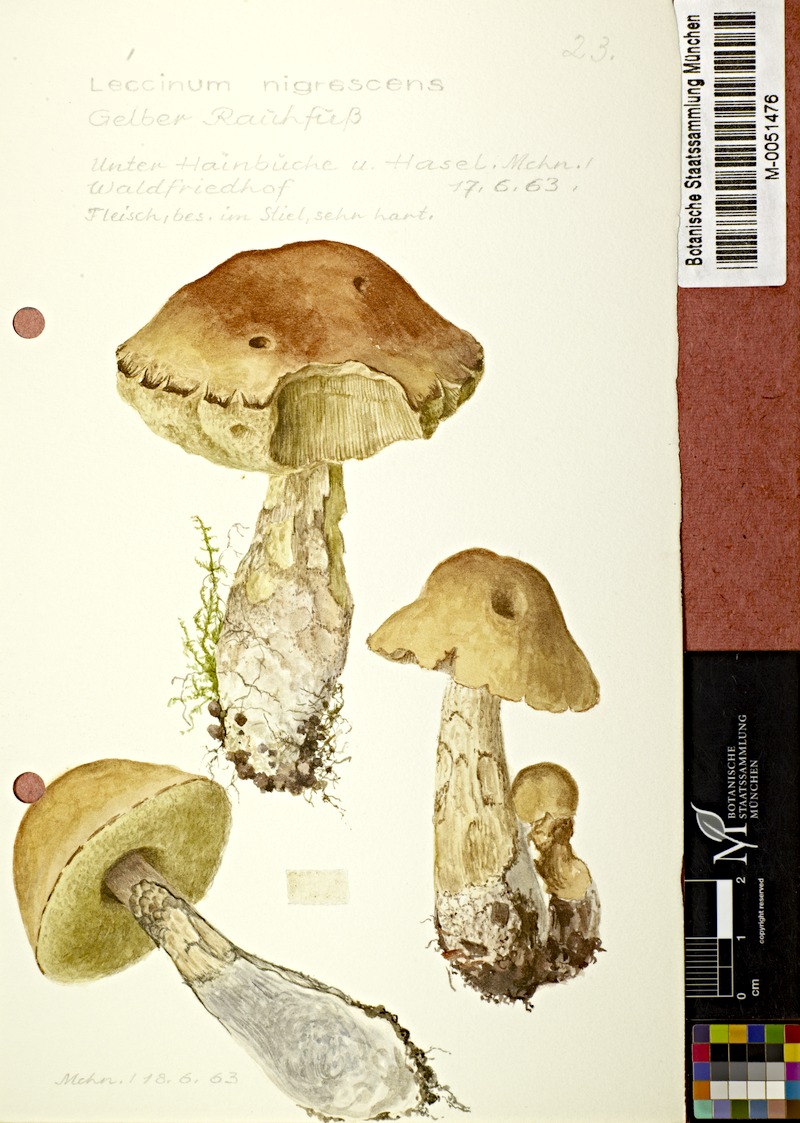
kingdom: Fungi
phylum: Basidiomycota
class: Agaricomycetes
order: Boletales
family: Boletaceae
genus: Leccinellum
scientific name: Leccinellum crocipodium
